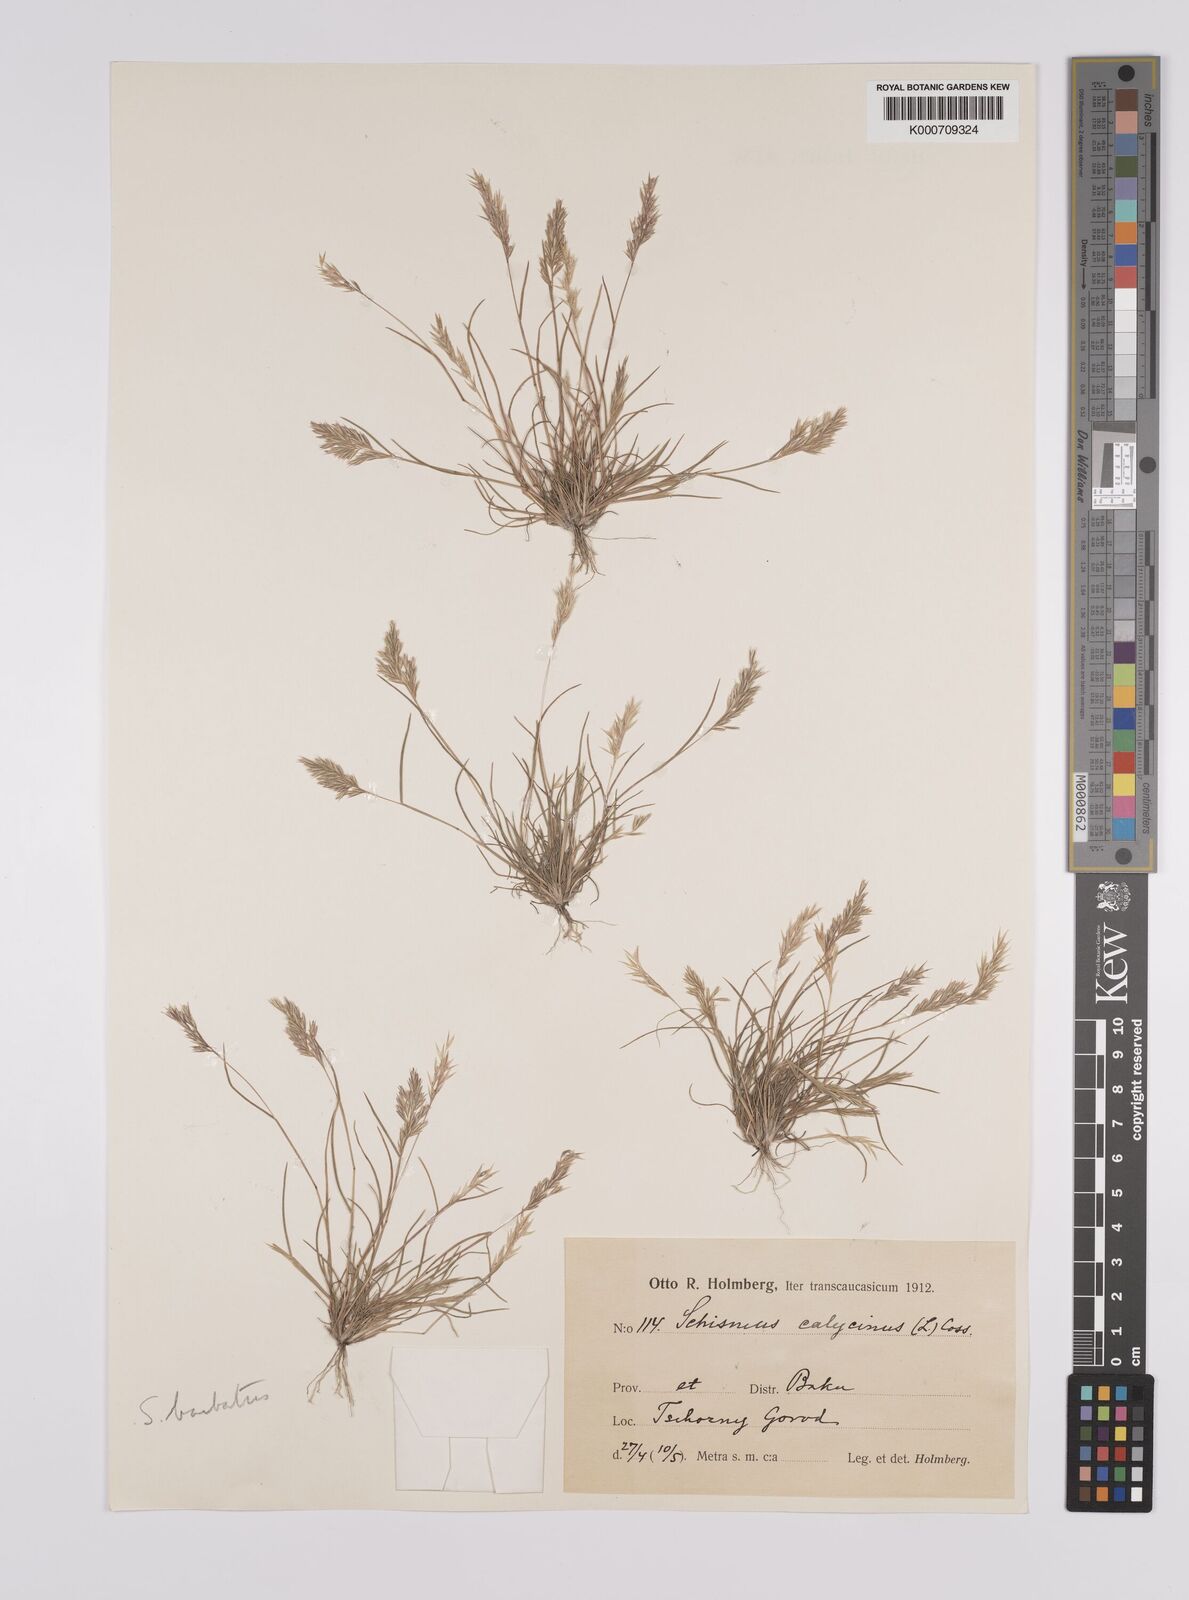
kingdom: Plantae
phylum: Tracheophyta
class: Liliopsida
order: Poales
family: Poaceae
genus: Schismus
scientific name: Schismus arabicus
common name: Arabian schismus
